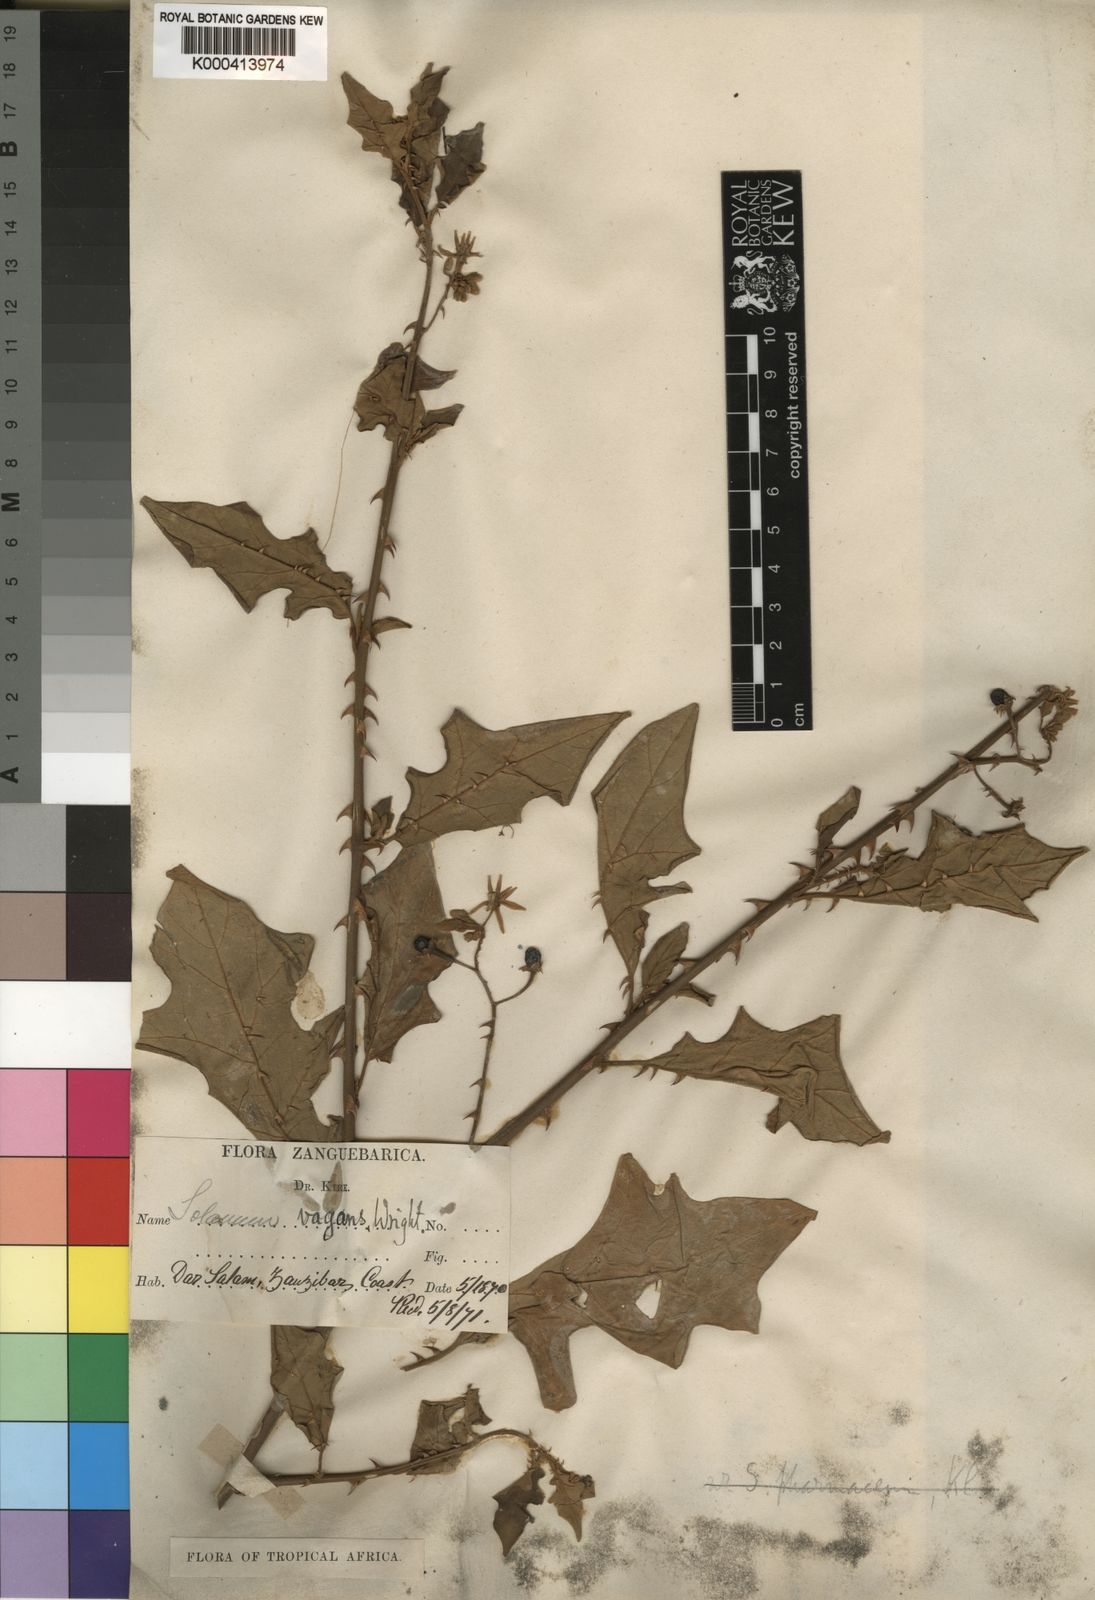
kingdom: Plantae
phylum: Tracheophyta
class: Magnoliopsida
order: Solanales
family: Solanaceae
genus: Solanum
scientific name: Solanum zanzibarense
